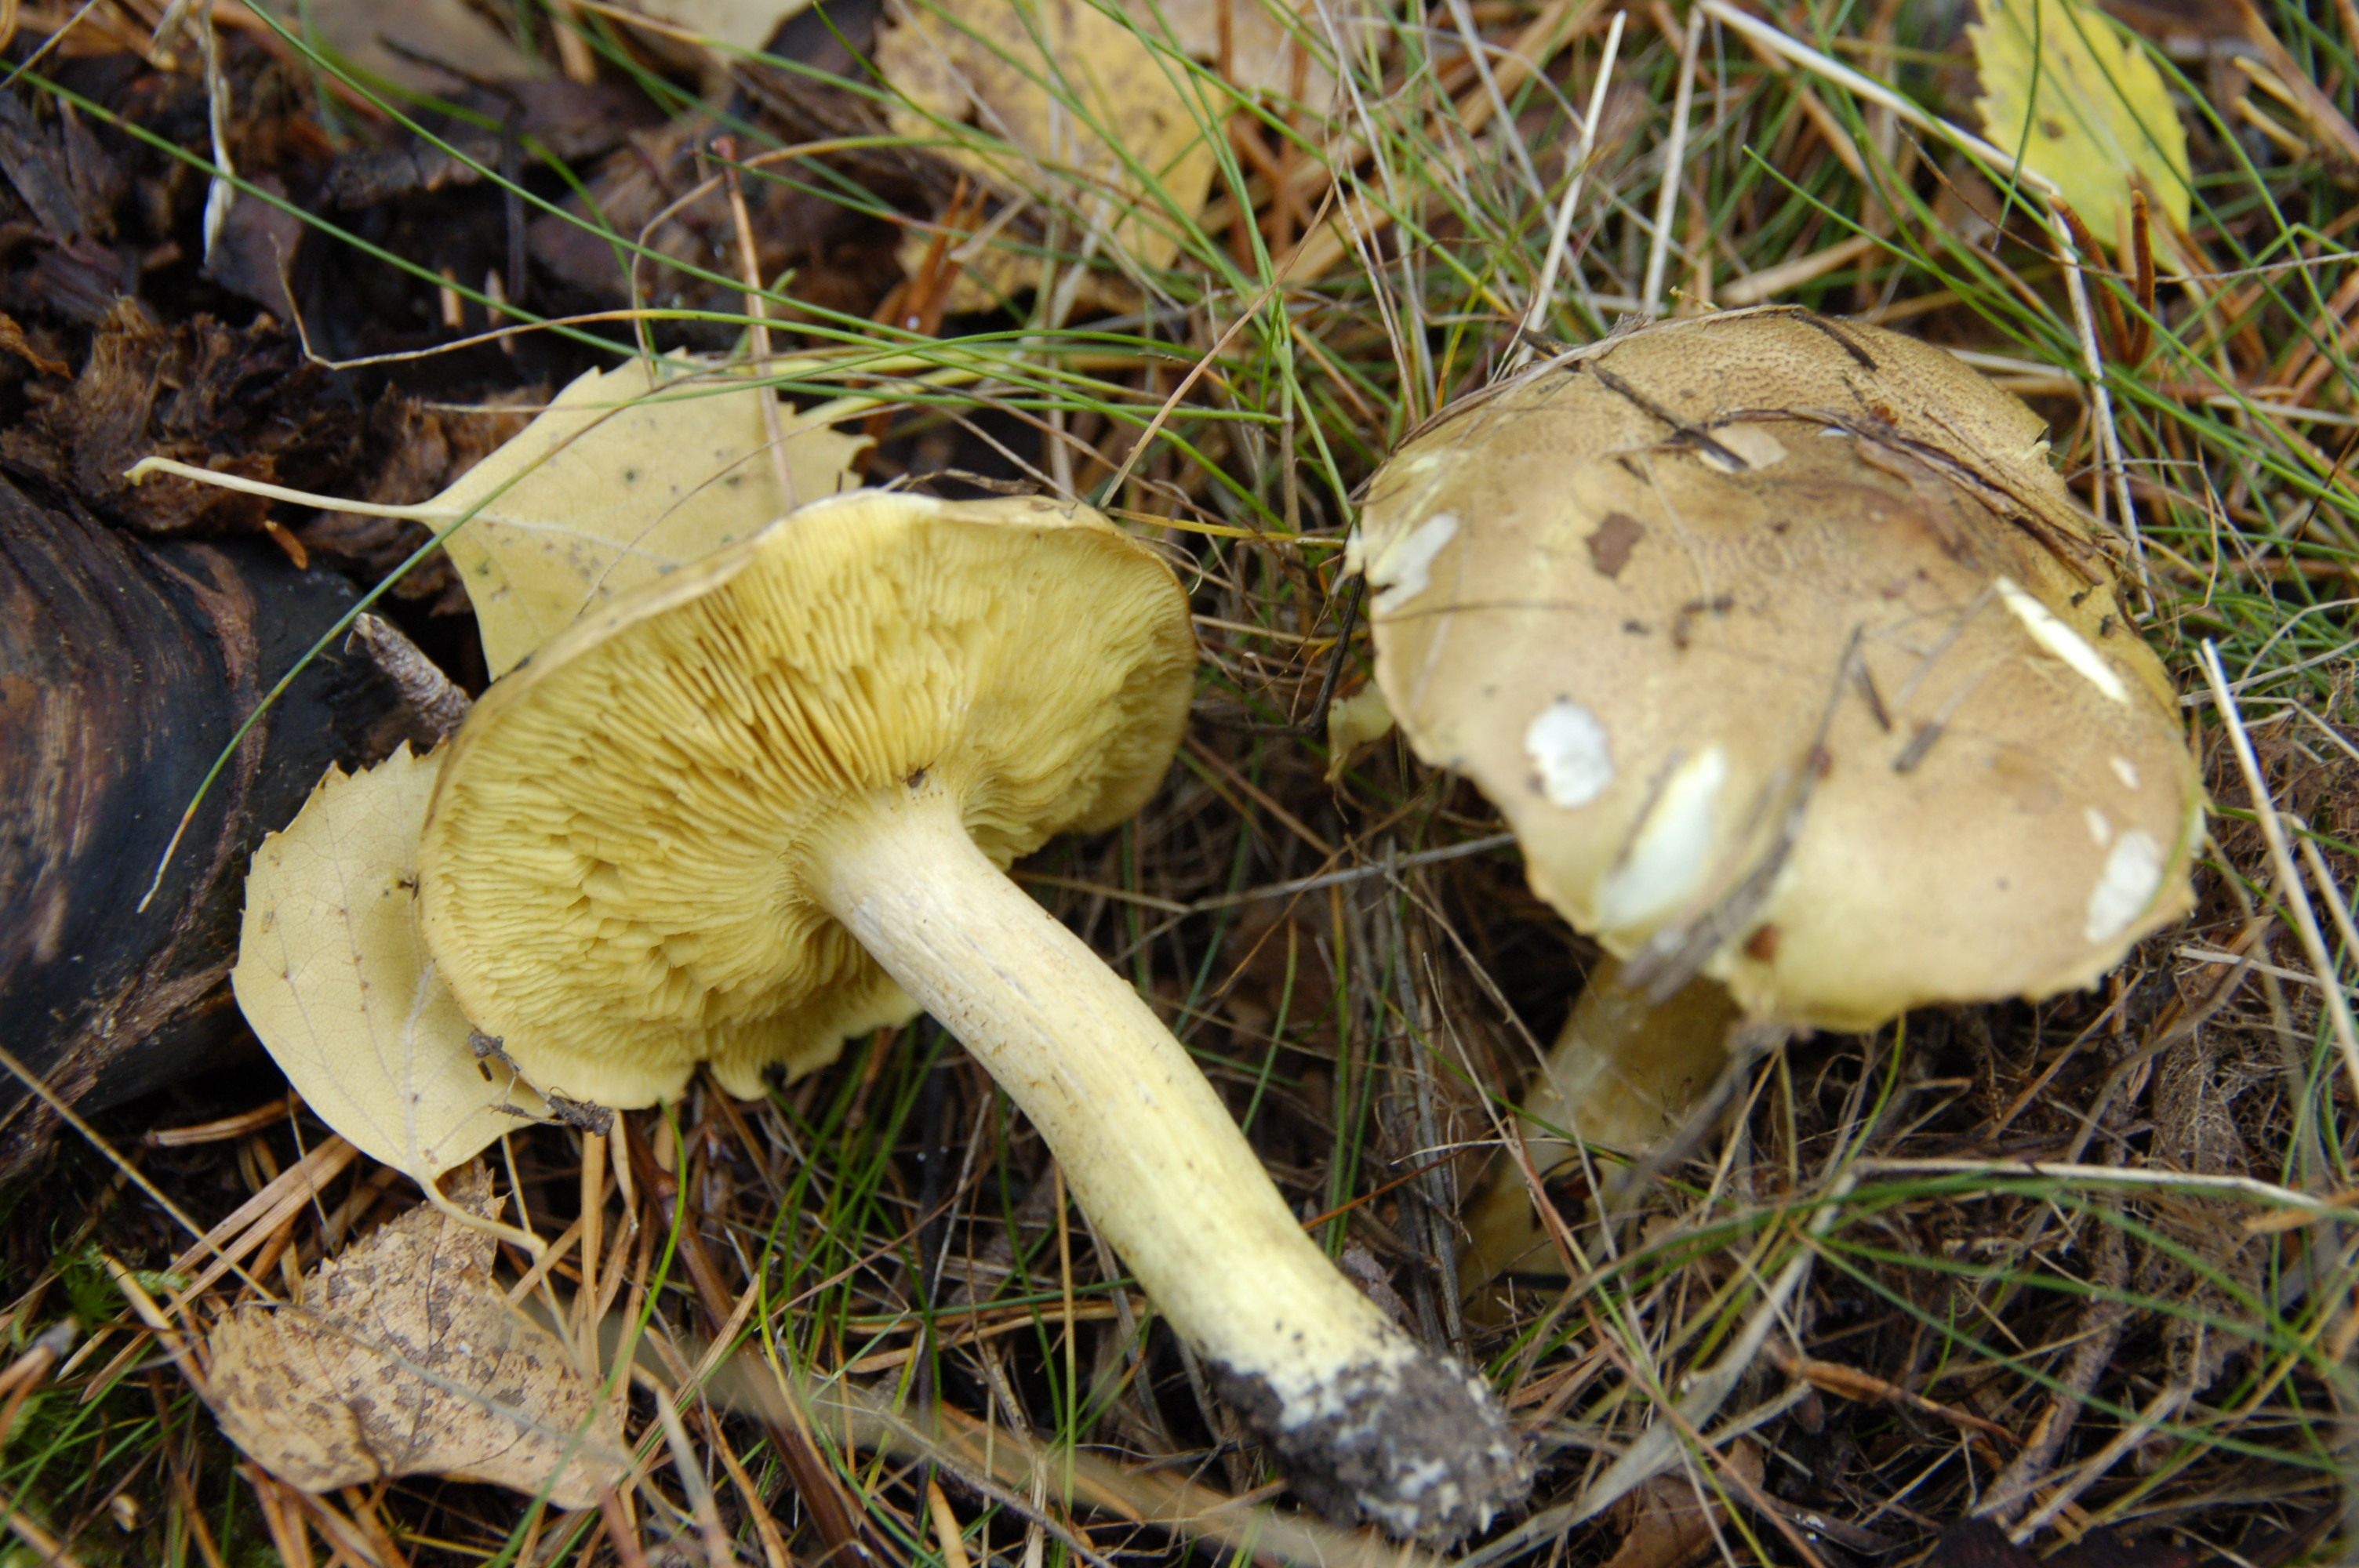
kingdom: Fungi
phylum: Basidiomycota
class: Agaricomycetes
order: Agaricales
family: Tricholomataceae
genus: Tricholoma
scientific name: Tricholoma frondosae
